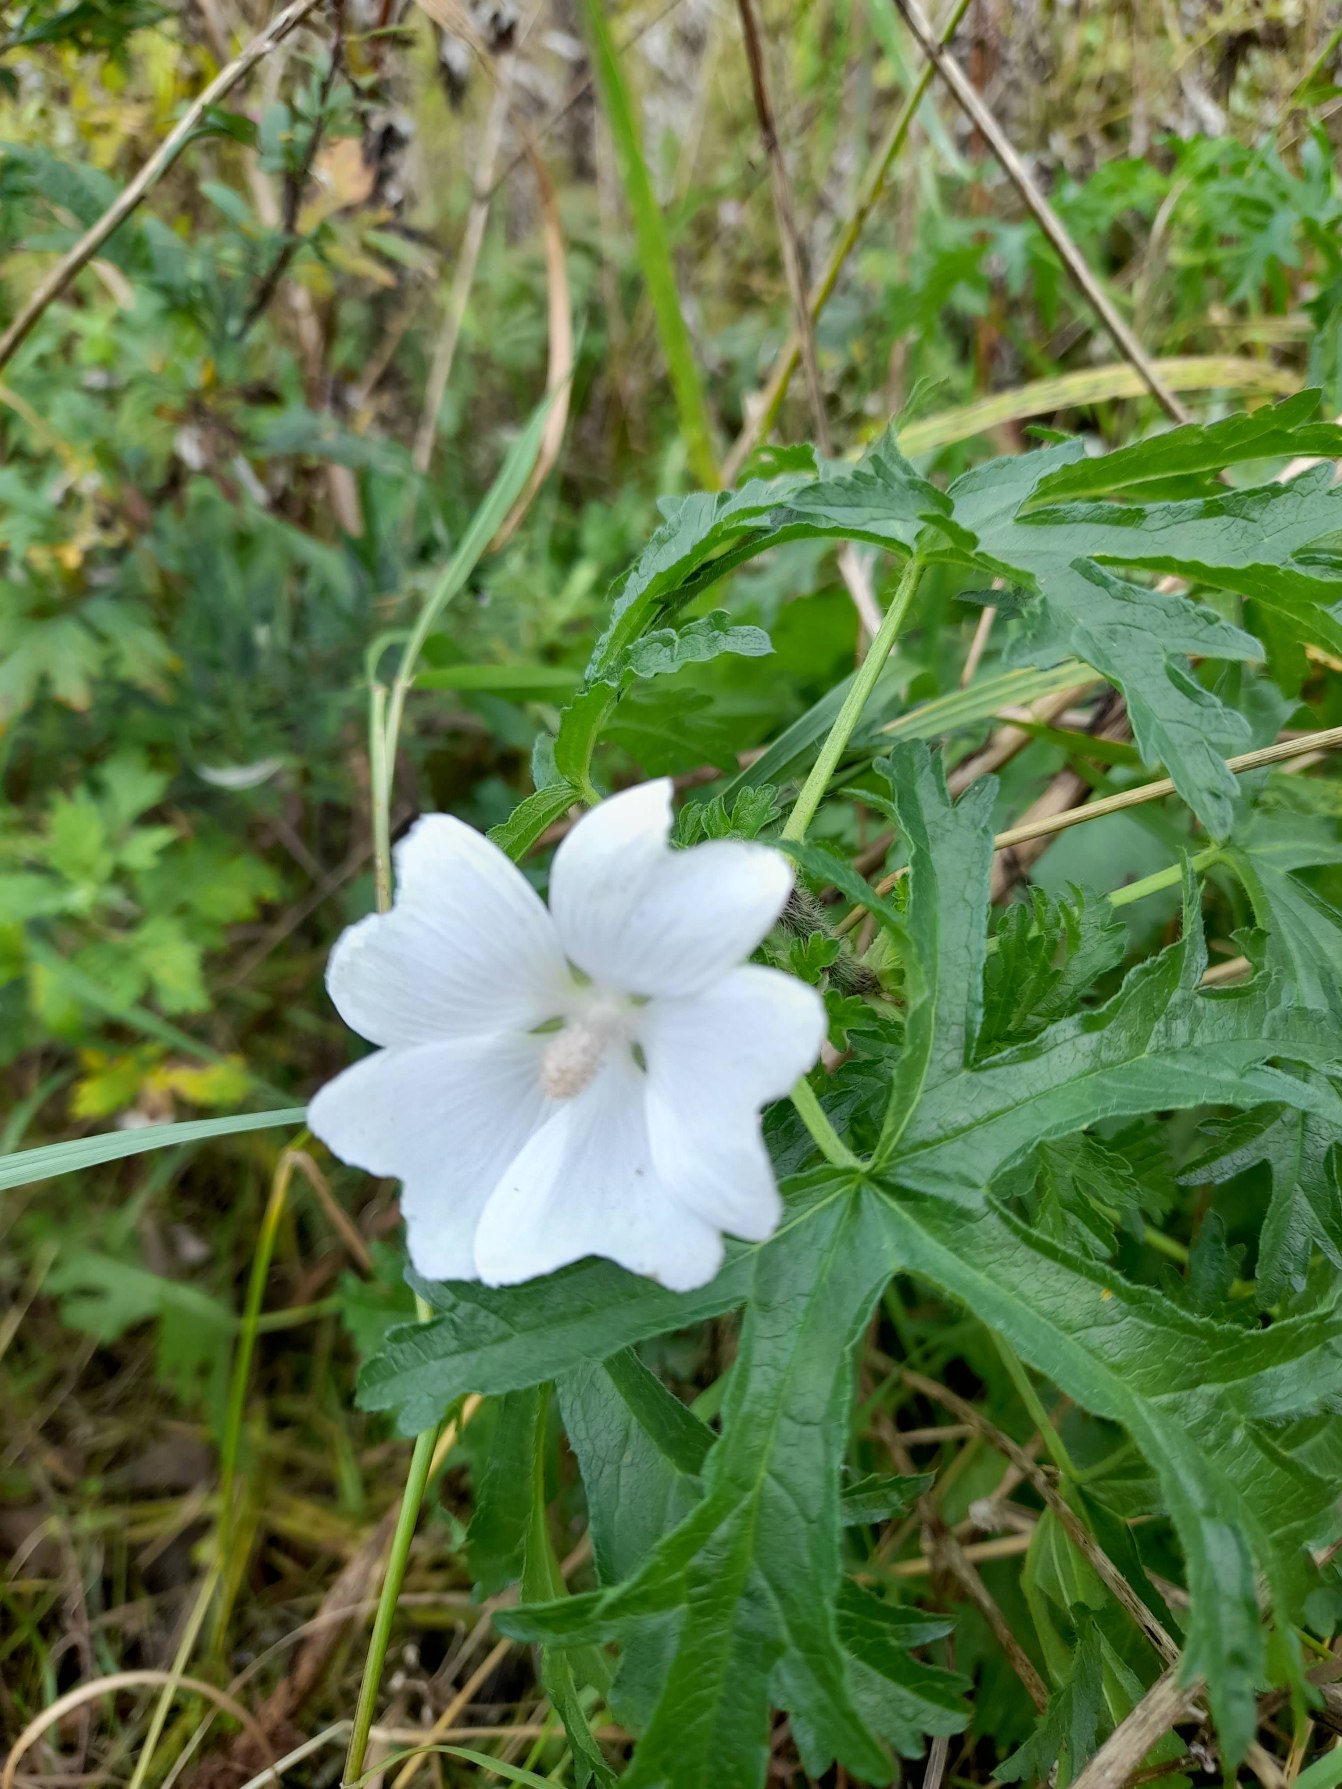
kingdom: Plantae
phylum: Tracheophyta
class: Magnoliopsida
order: Malvales
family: Malvaceae
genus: Malva
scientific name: Malva moschata
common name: Moskus-katost
